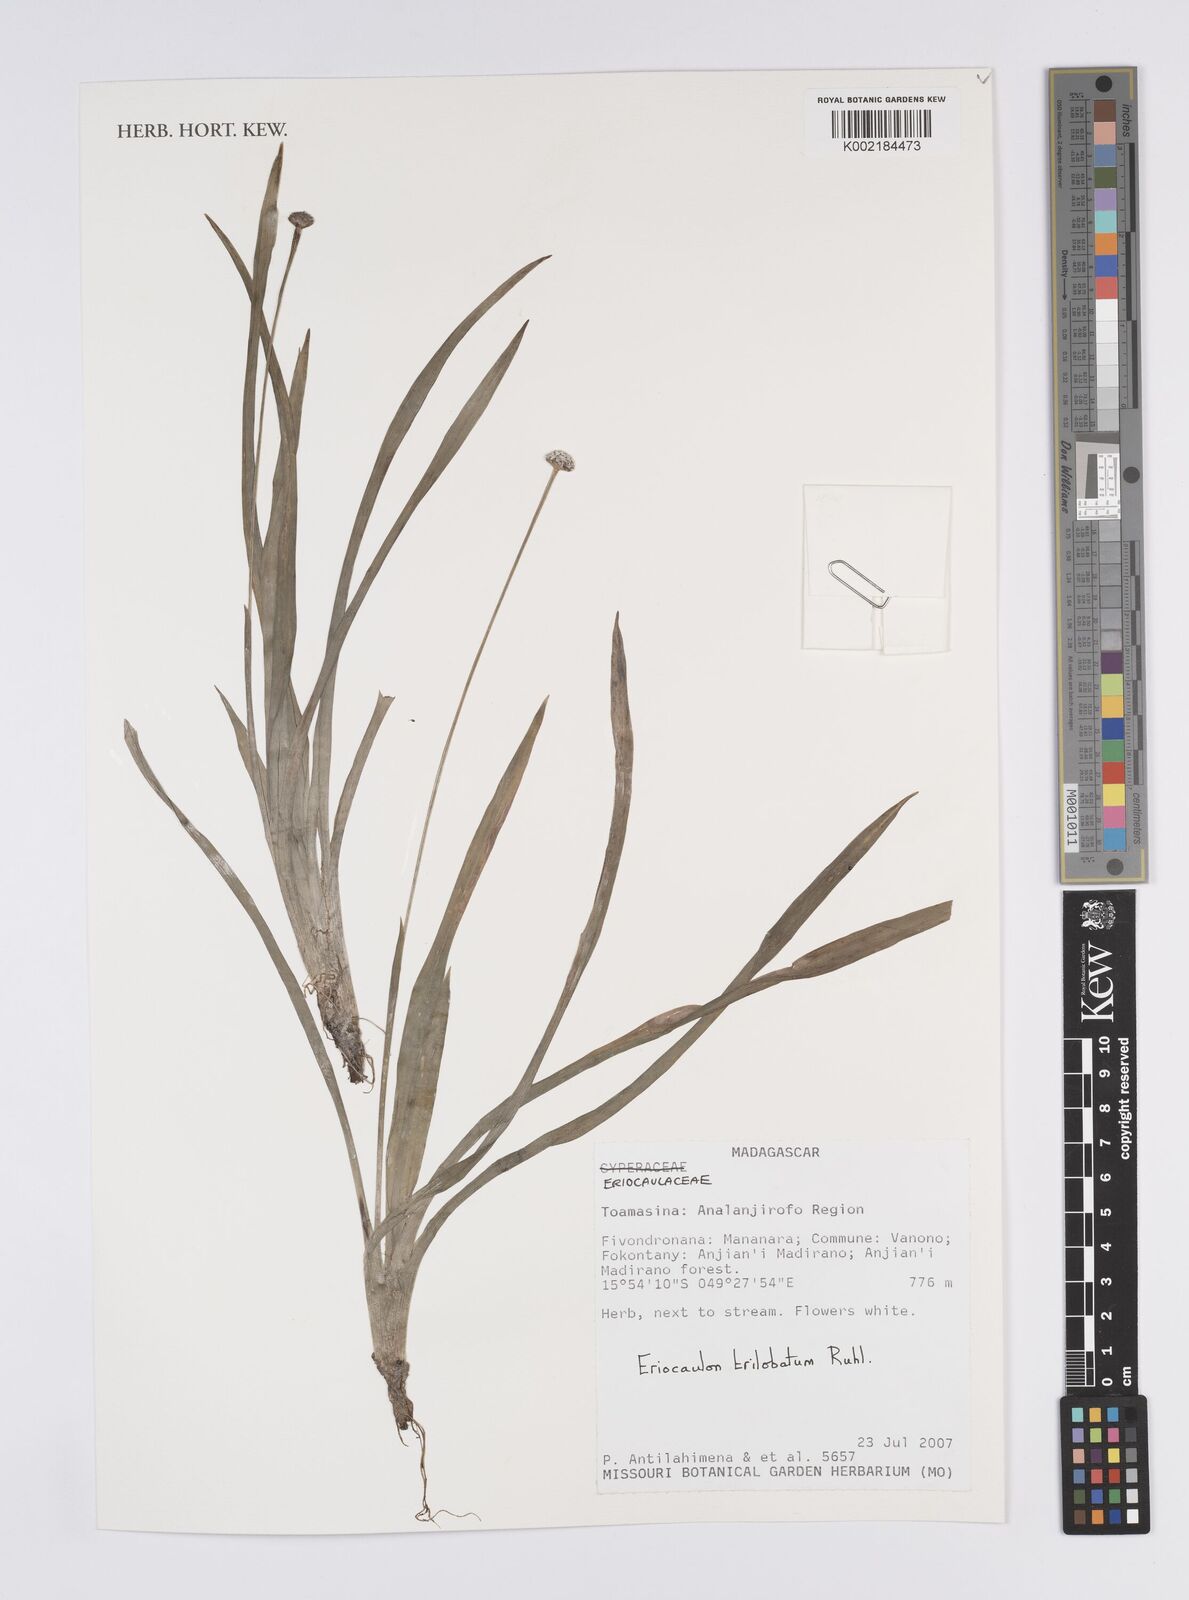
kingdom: Plantae
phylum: Tracheophyta
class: Liliopsida
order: Poales
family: Eriocaulaceae
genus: Eriocaulon
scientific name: Eriocaulon trilobatum
